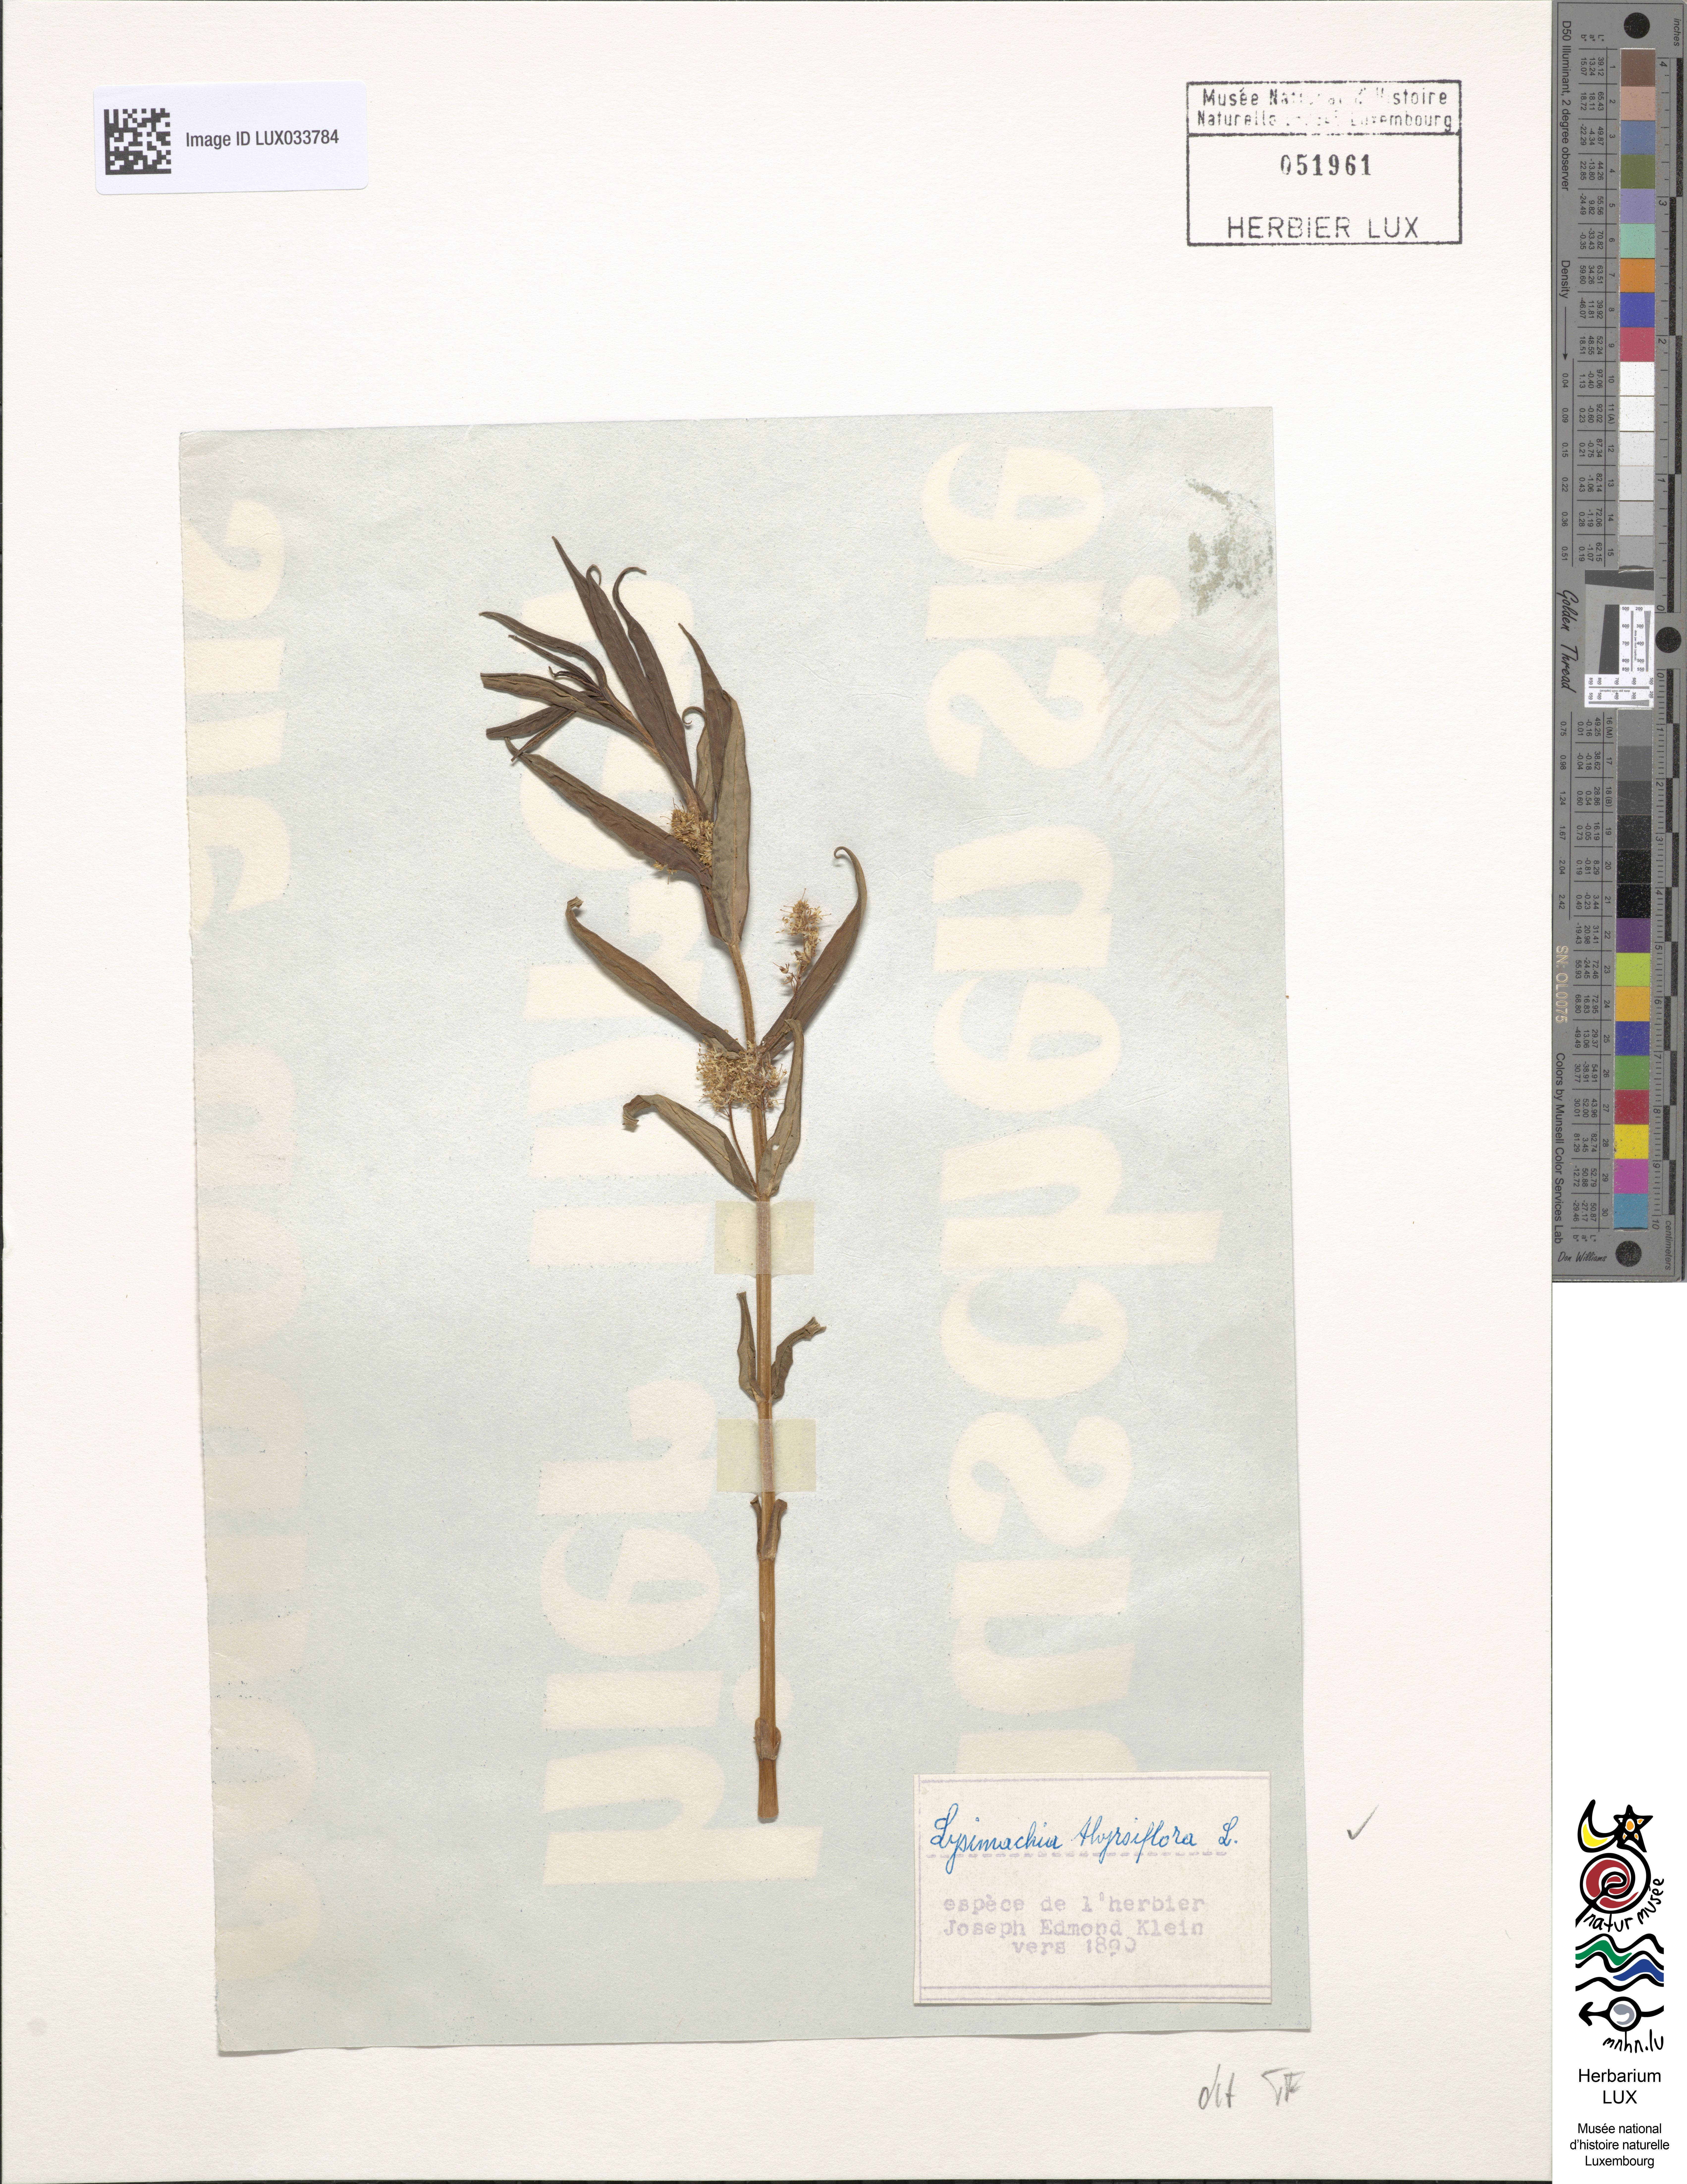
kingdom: Plantae
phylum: Tracheophyta
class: Magnoliopsida
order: Ericales
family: Primulaceae
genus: Lysimachia
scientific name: Lysimachia thyrsiflora
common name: Tufted loosestrife
